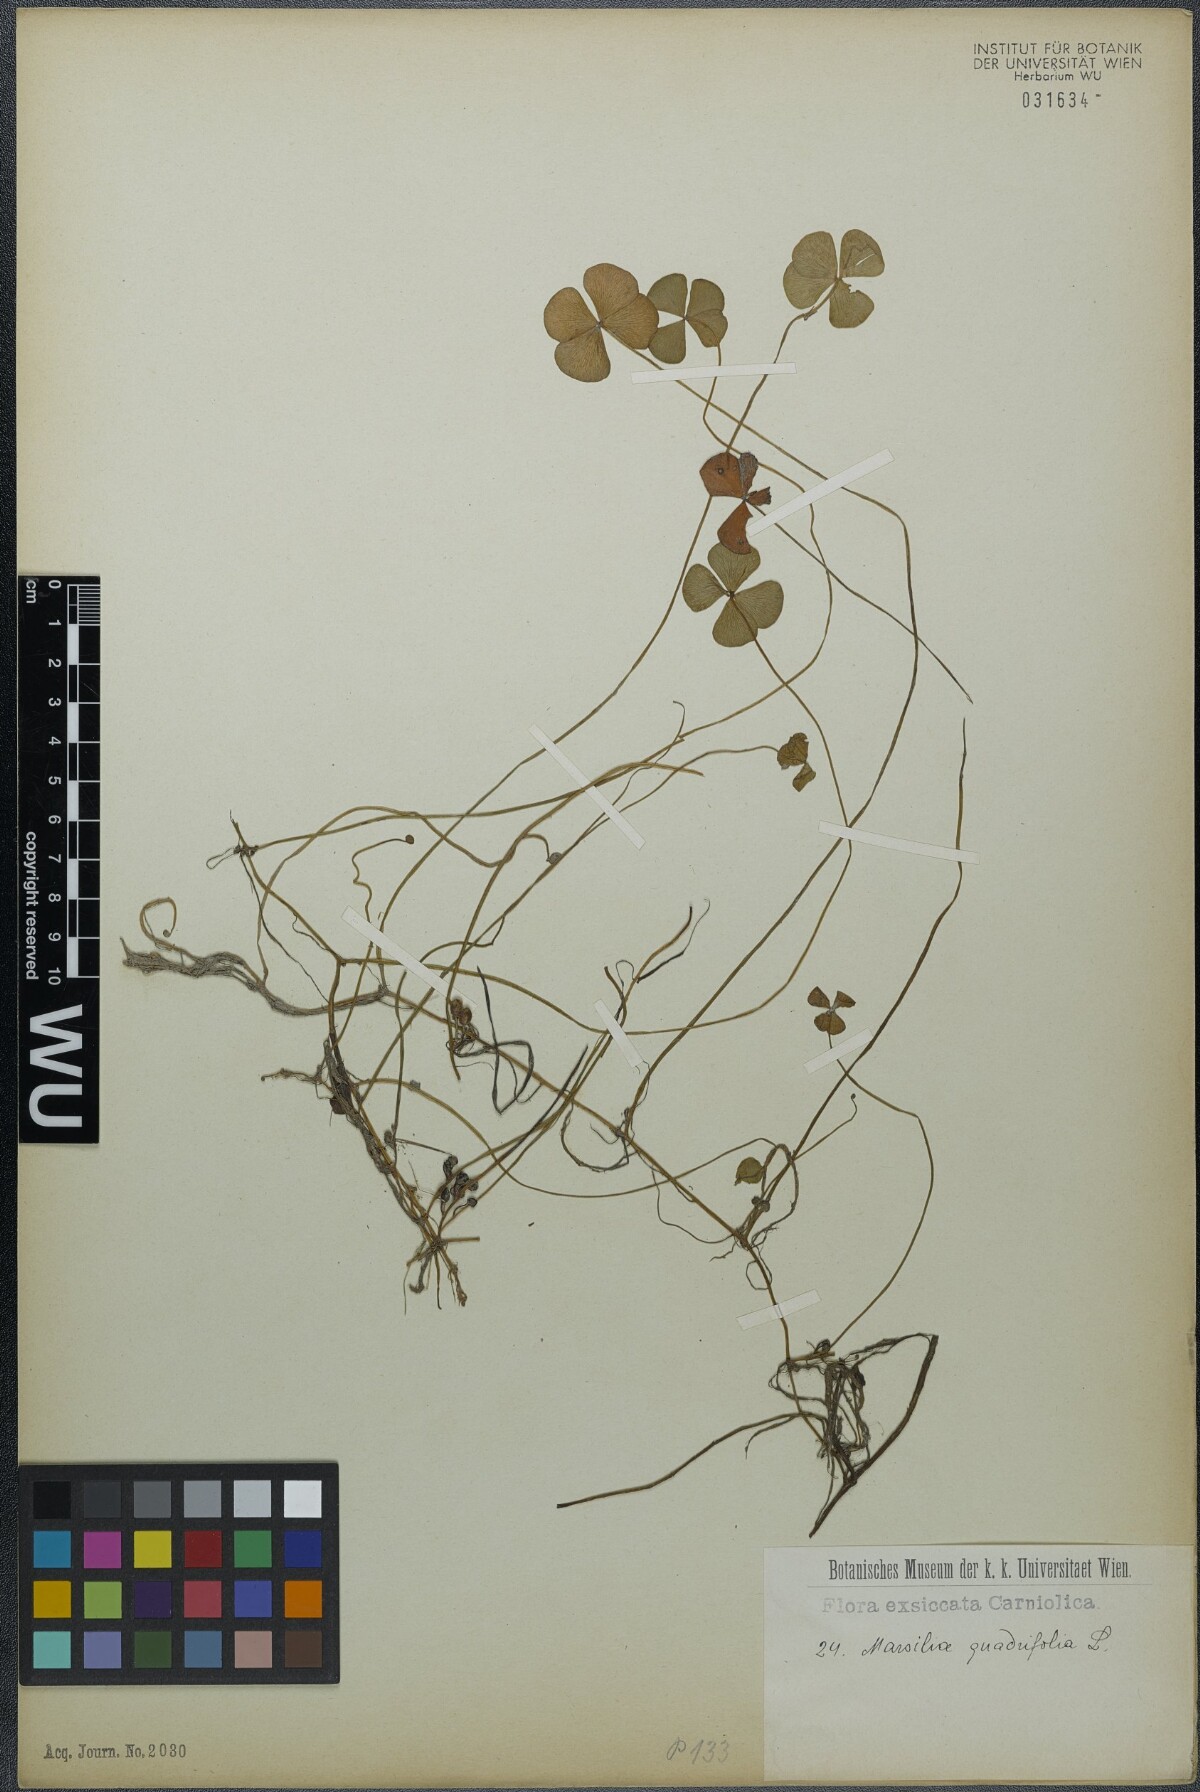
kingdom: Plantae
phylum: Tracheophyta
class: Polypodiopsida
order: Salviniales
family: Marsileaceae
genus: Marsilea
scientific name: Marsilea quadrifolia
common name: Water shamrock
